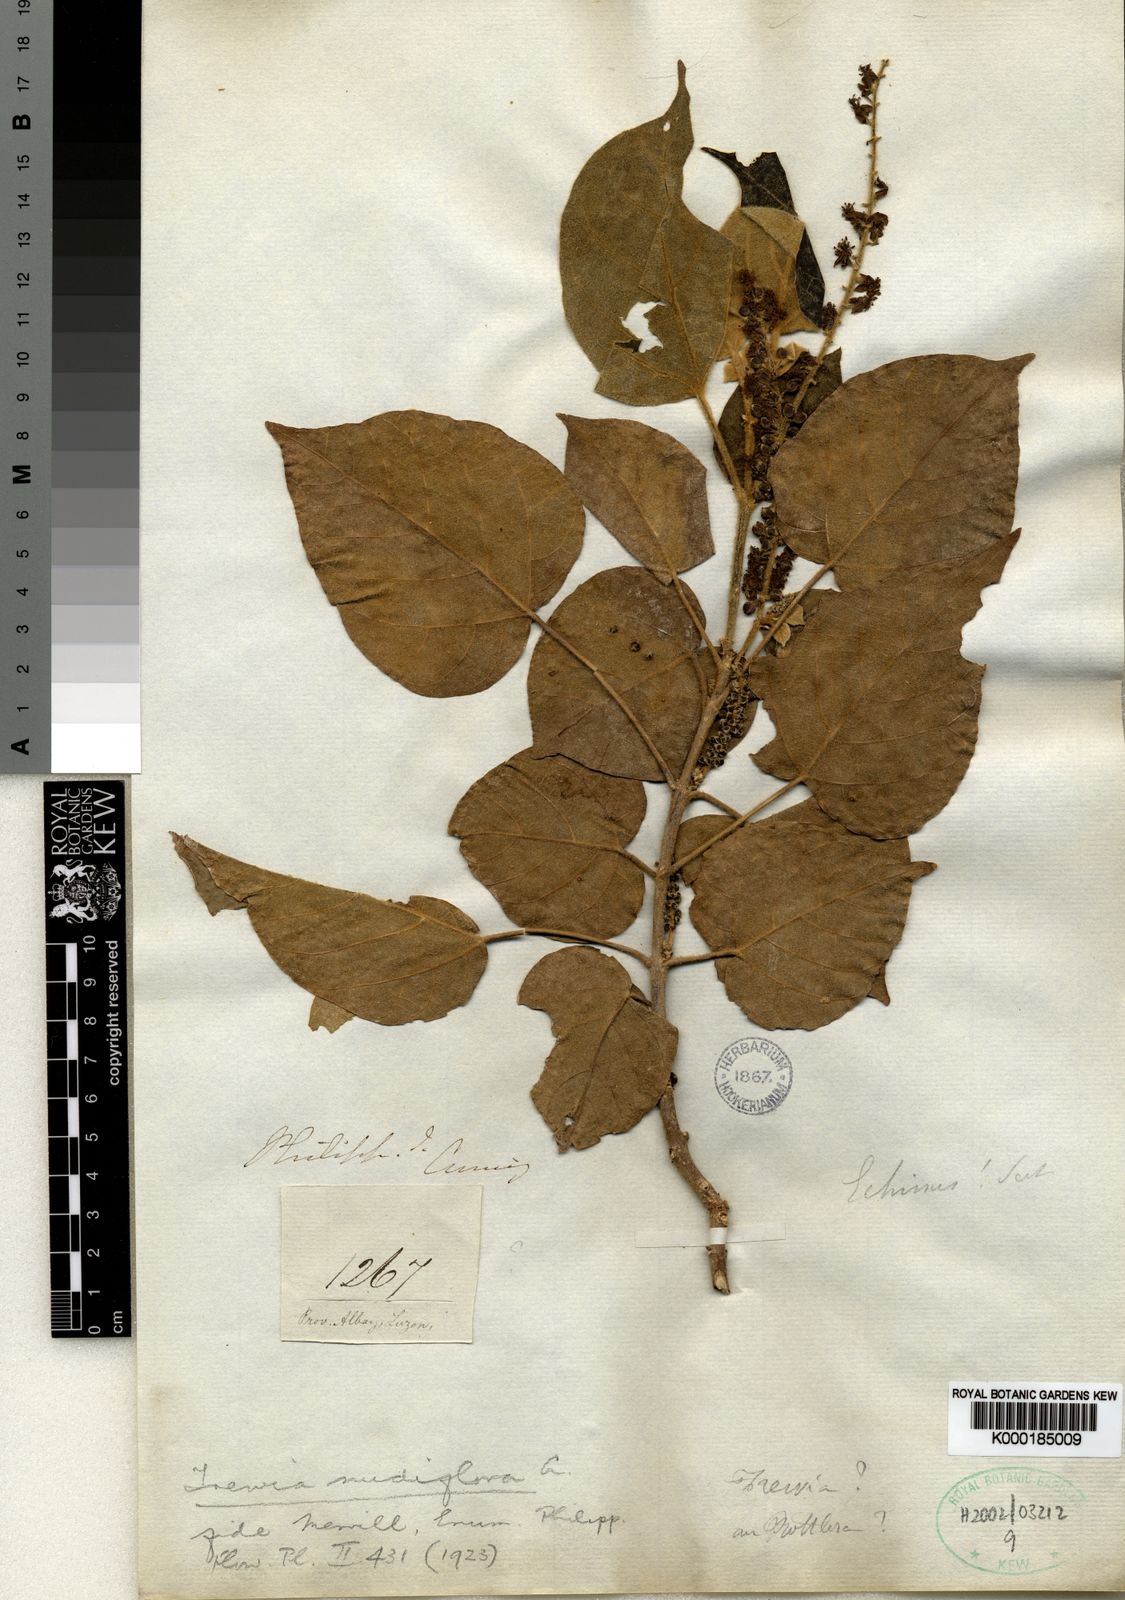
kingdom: Plantae
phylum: Tracheophyta
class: Magnoliopsida
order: Malpighiales
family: Euphorbiaceae
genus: Mallotus
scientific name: Mallotus nudiflorus
